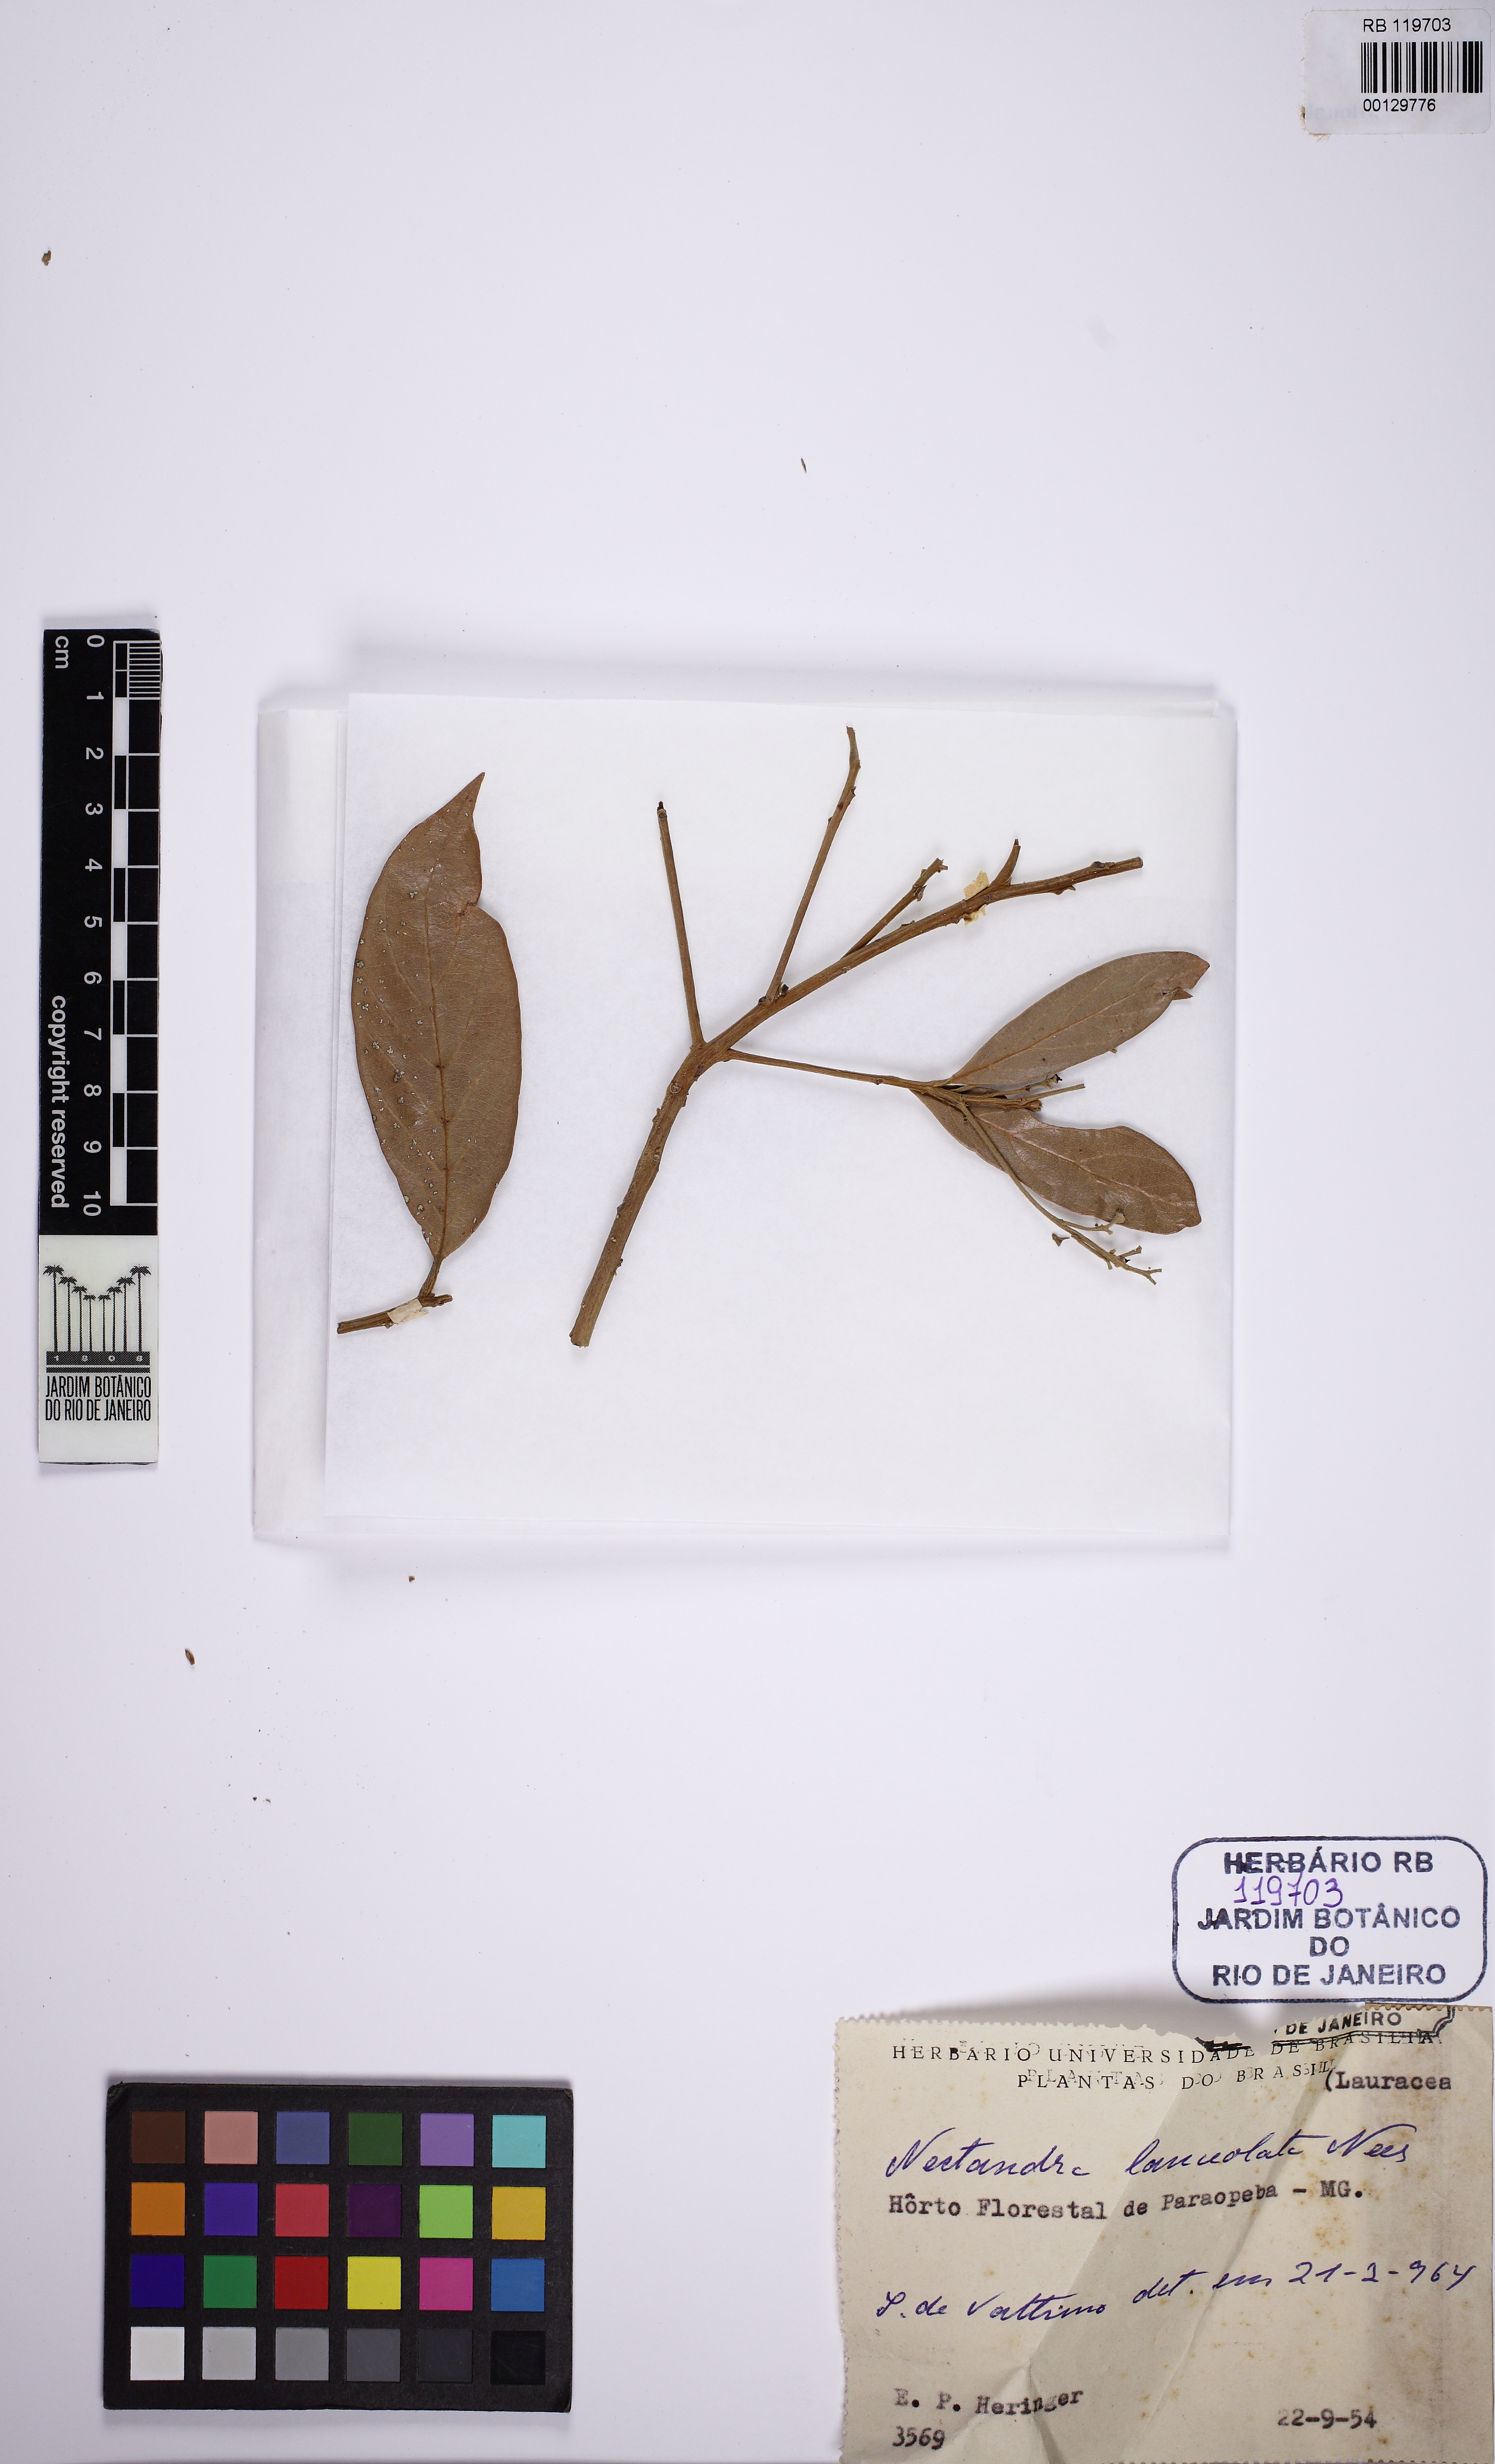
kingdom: Plantae
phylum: Tracheophyta
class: Magnoliopsida
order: Laurales
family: Lauraceae
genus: Nectandra
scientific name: Nectandra lanceolata
